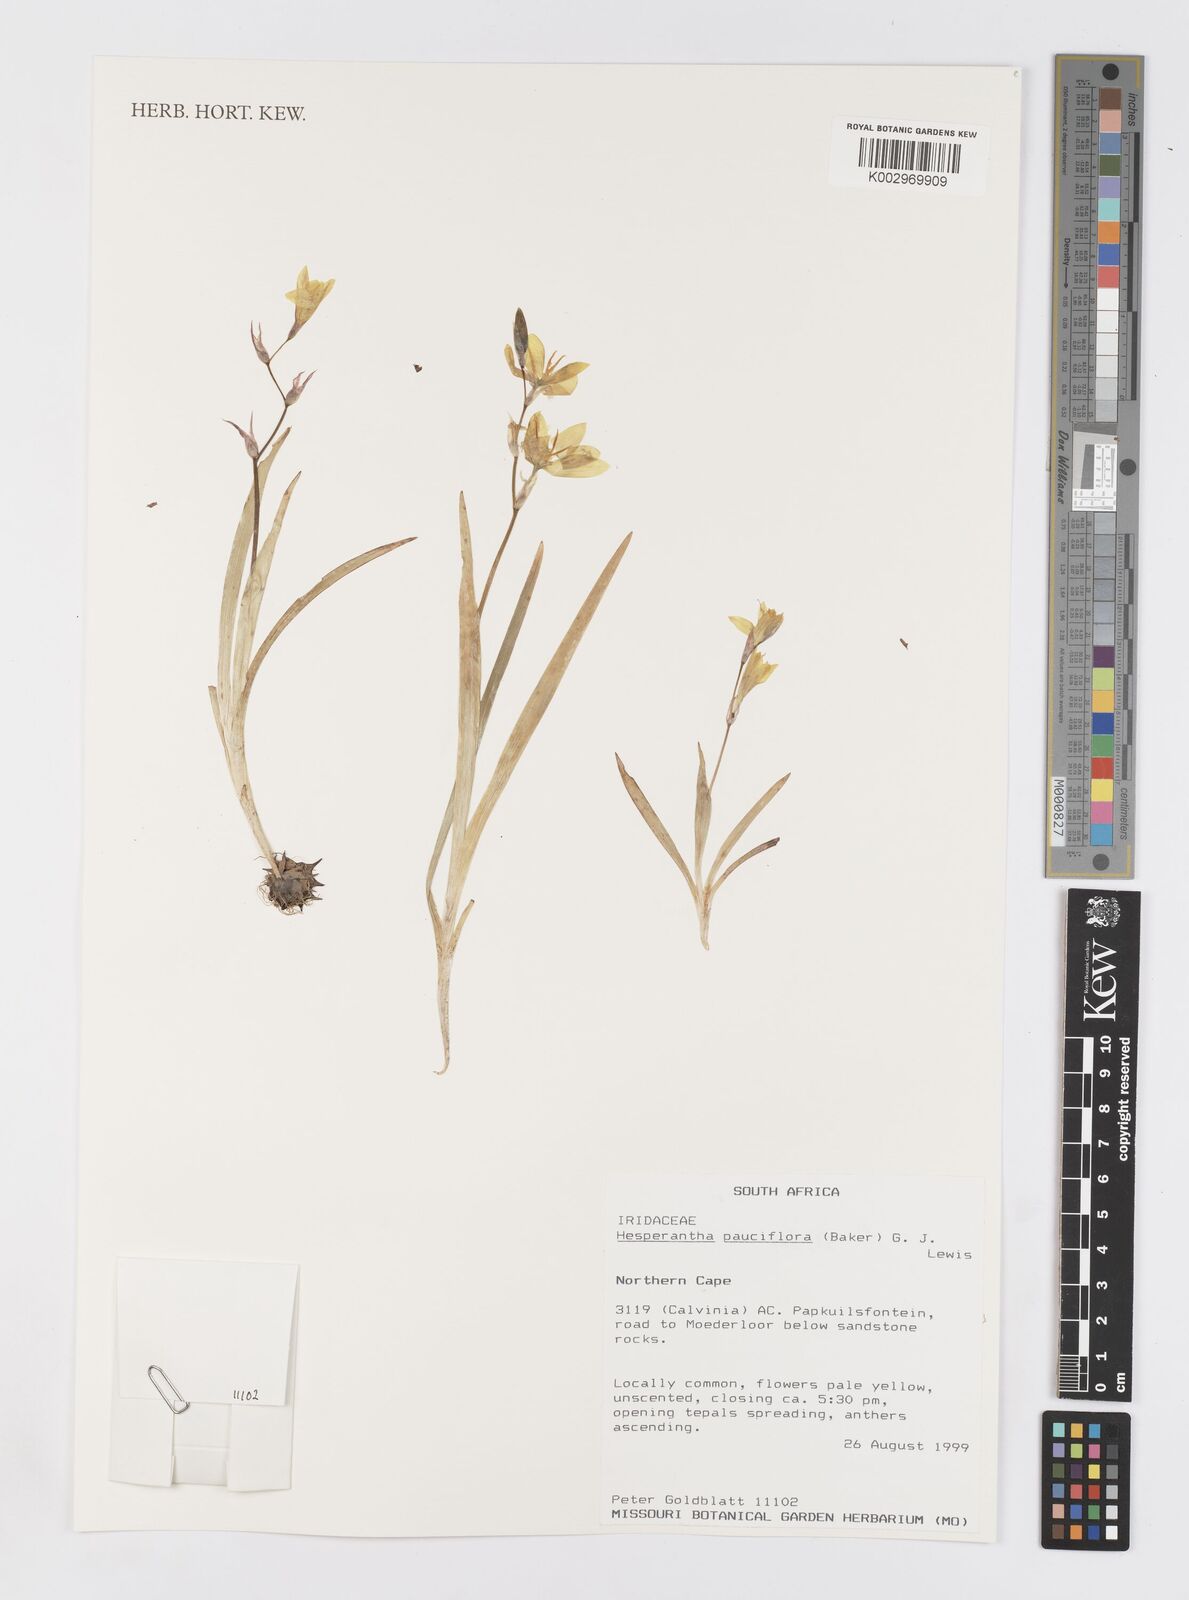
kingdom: Plantae
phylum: Tracheophyta
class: Liliopsida
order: Asparagales
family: Iridaceae
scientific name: Iridaceae
